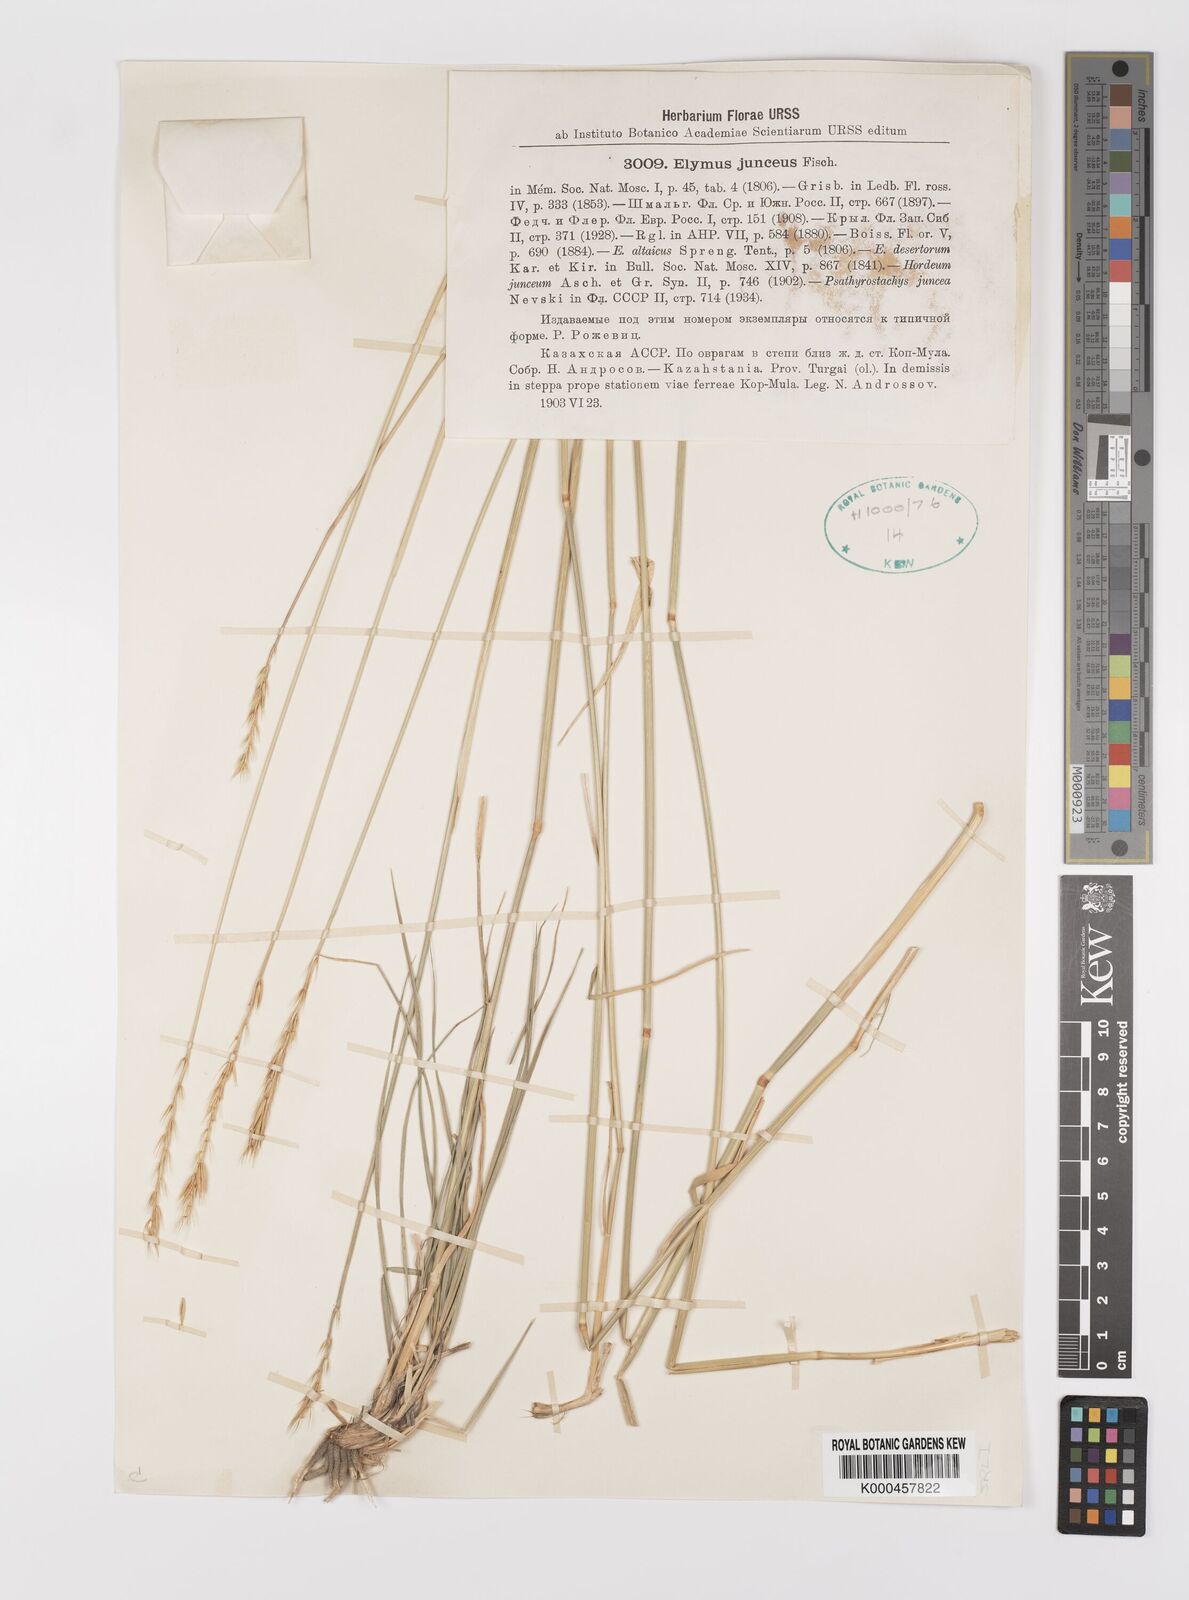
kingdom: Plantae
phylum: Tracheophyta
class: Liliopsida
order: Poales
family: Poaceae
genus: Psathyrostachys
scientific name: Psathyrostachys juncea
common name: Russian wildrye
